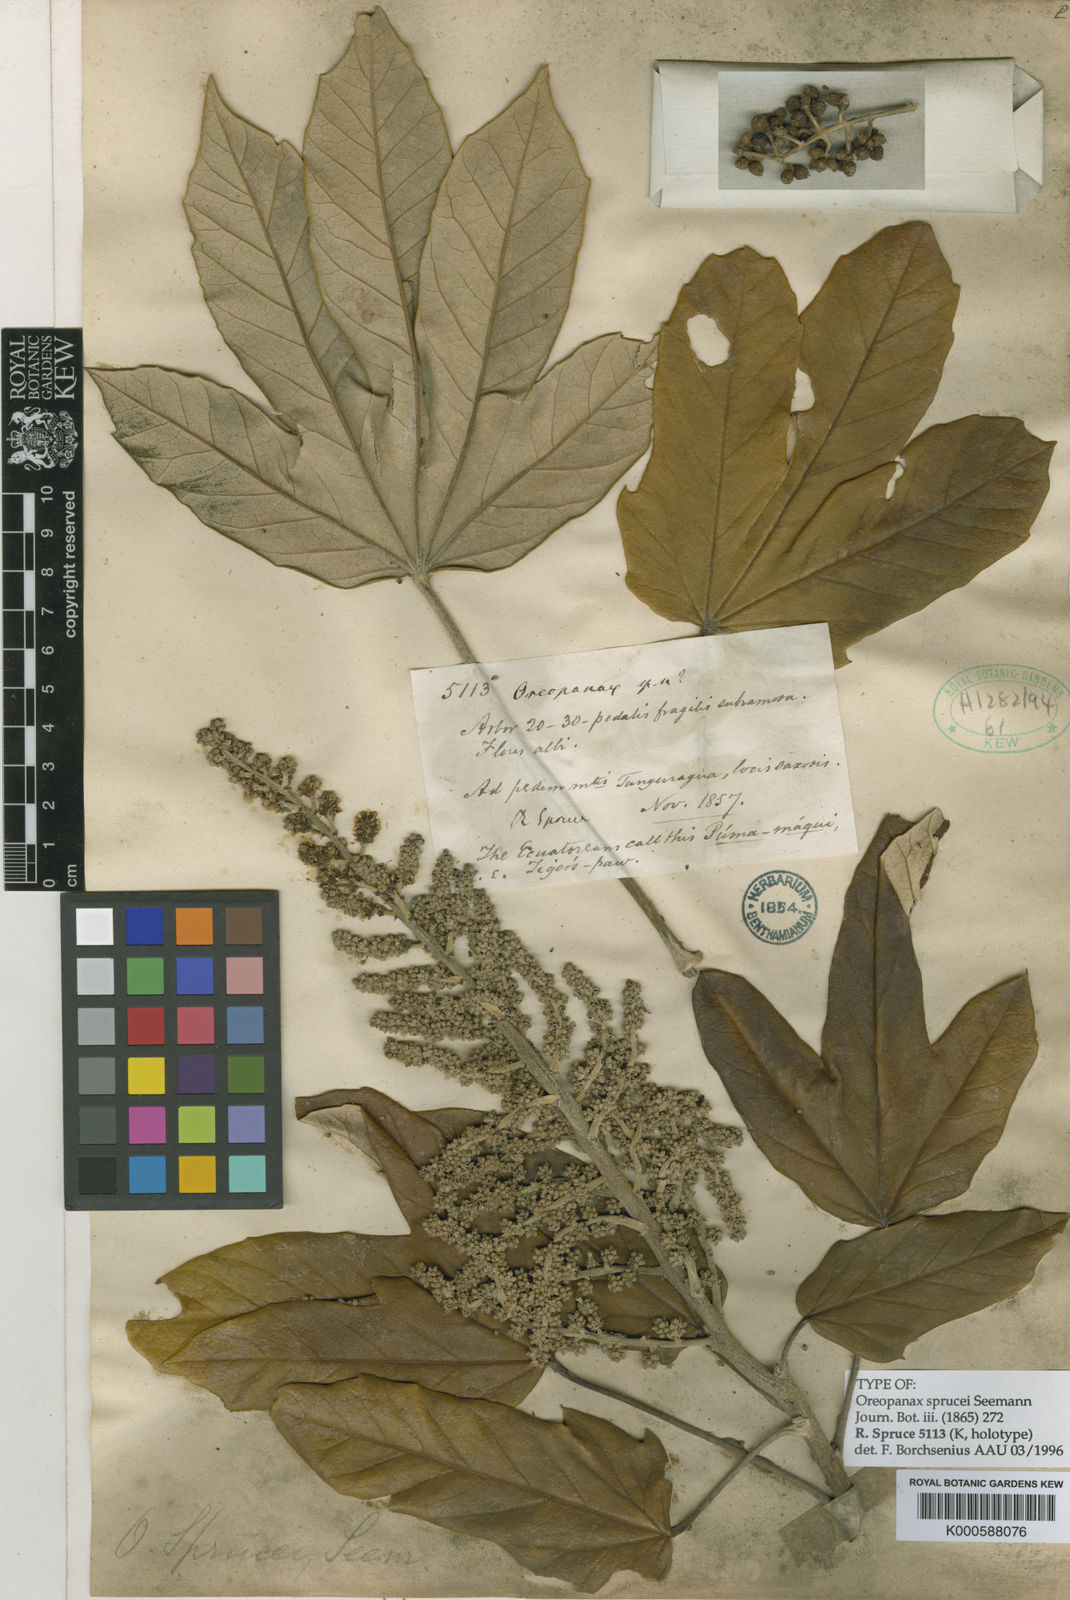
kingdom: Plantae
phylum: Tracheophyta
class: Magnoliopsida
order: Apiales
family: Araliaceae
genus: Oreopanax
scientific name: Oreopanax
